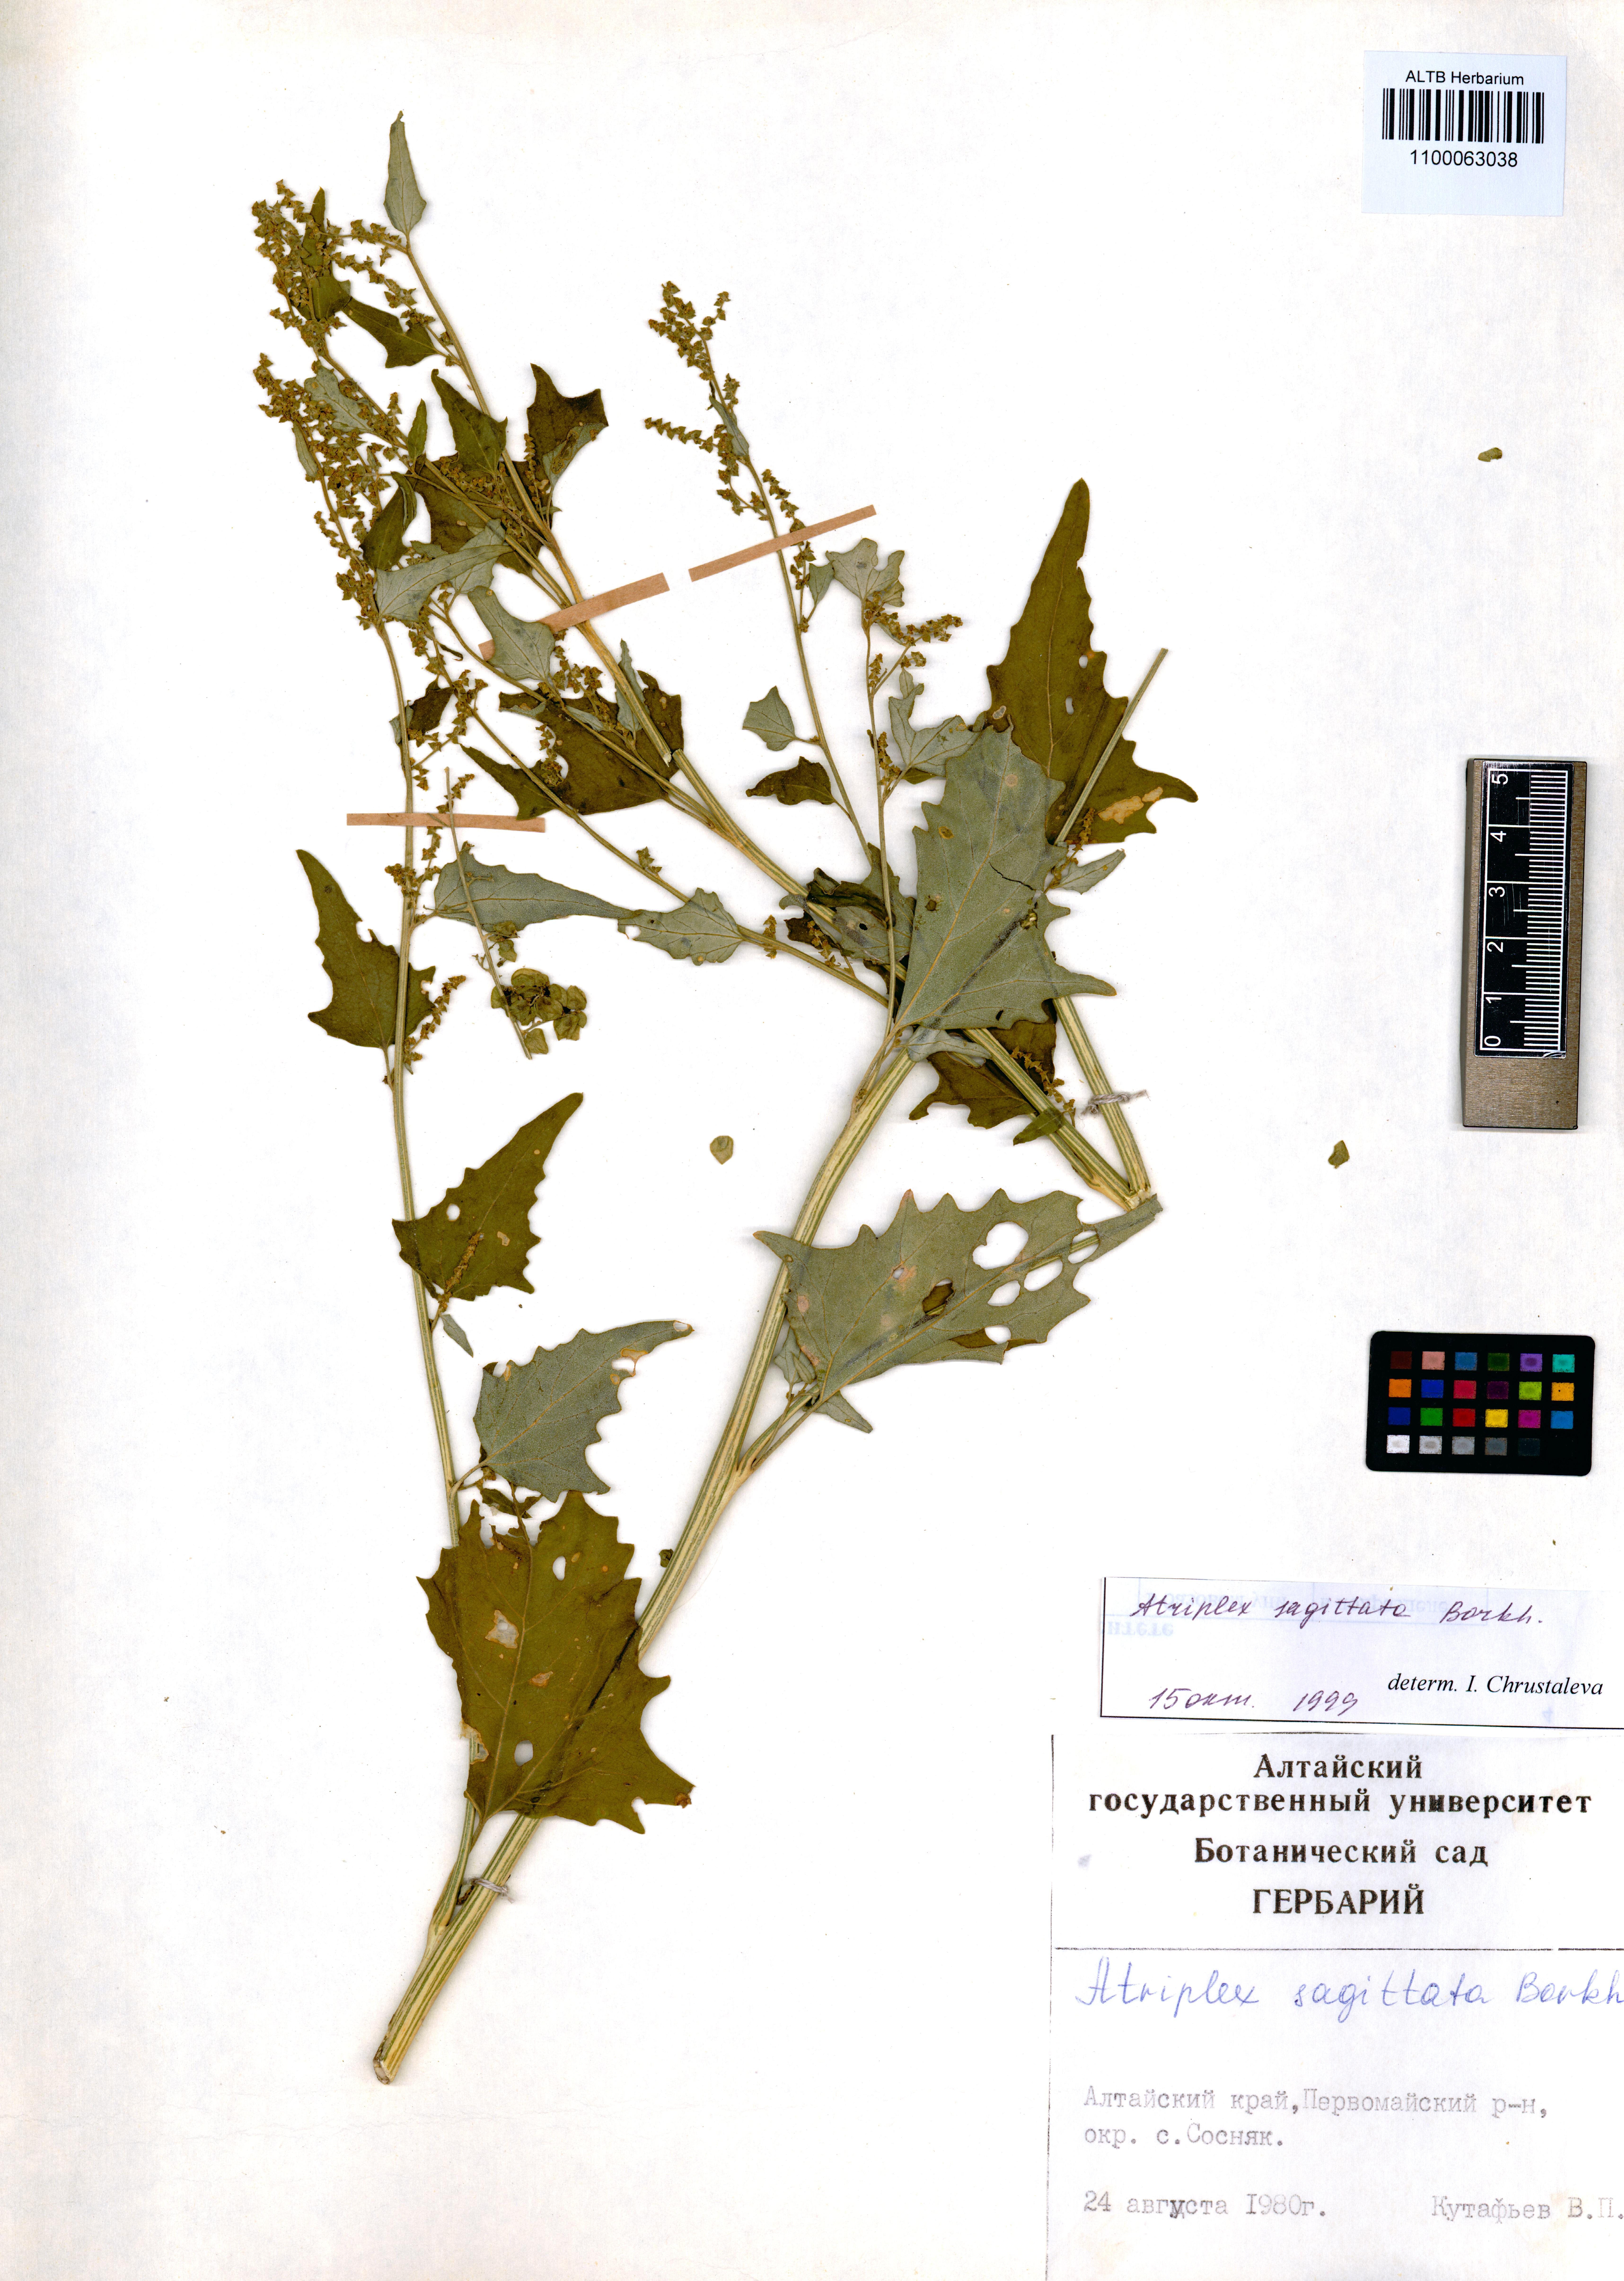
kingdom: Plantae
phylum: Tracheophyta
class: Magnoliopsida
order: Caryophyllales
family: Amaranthaceae
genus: Atriplex
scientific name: Atriplex sagittata
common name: Purple orache
